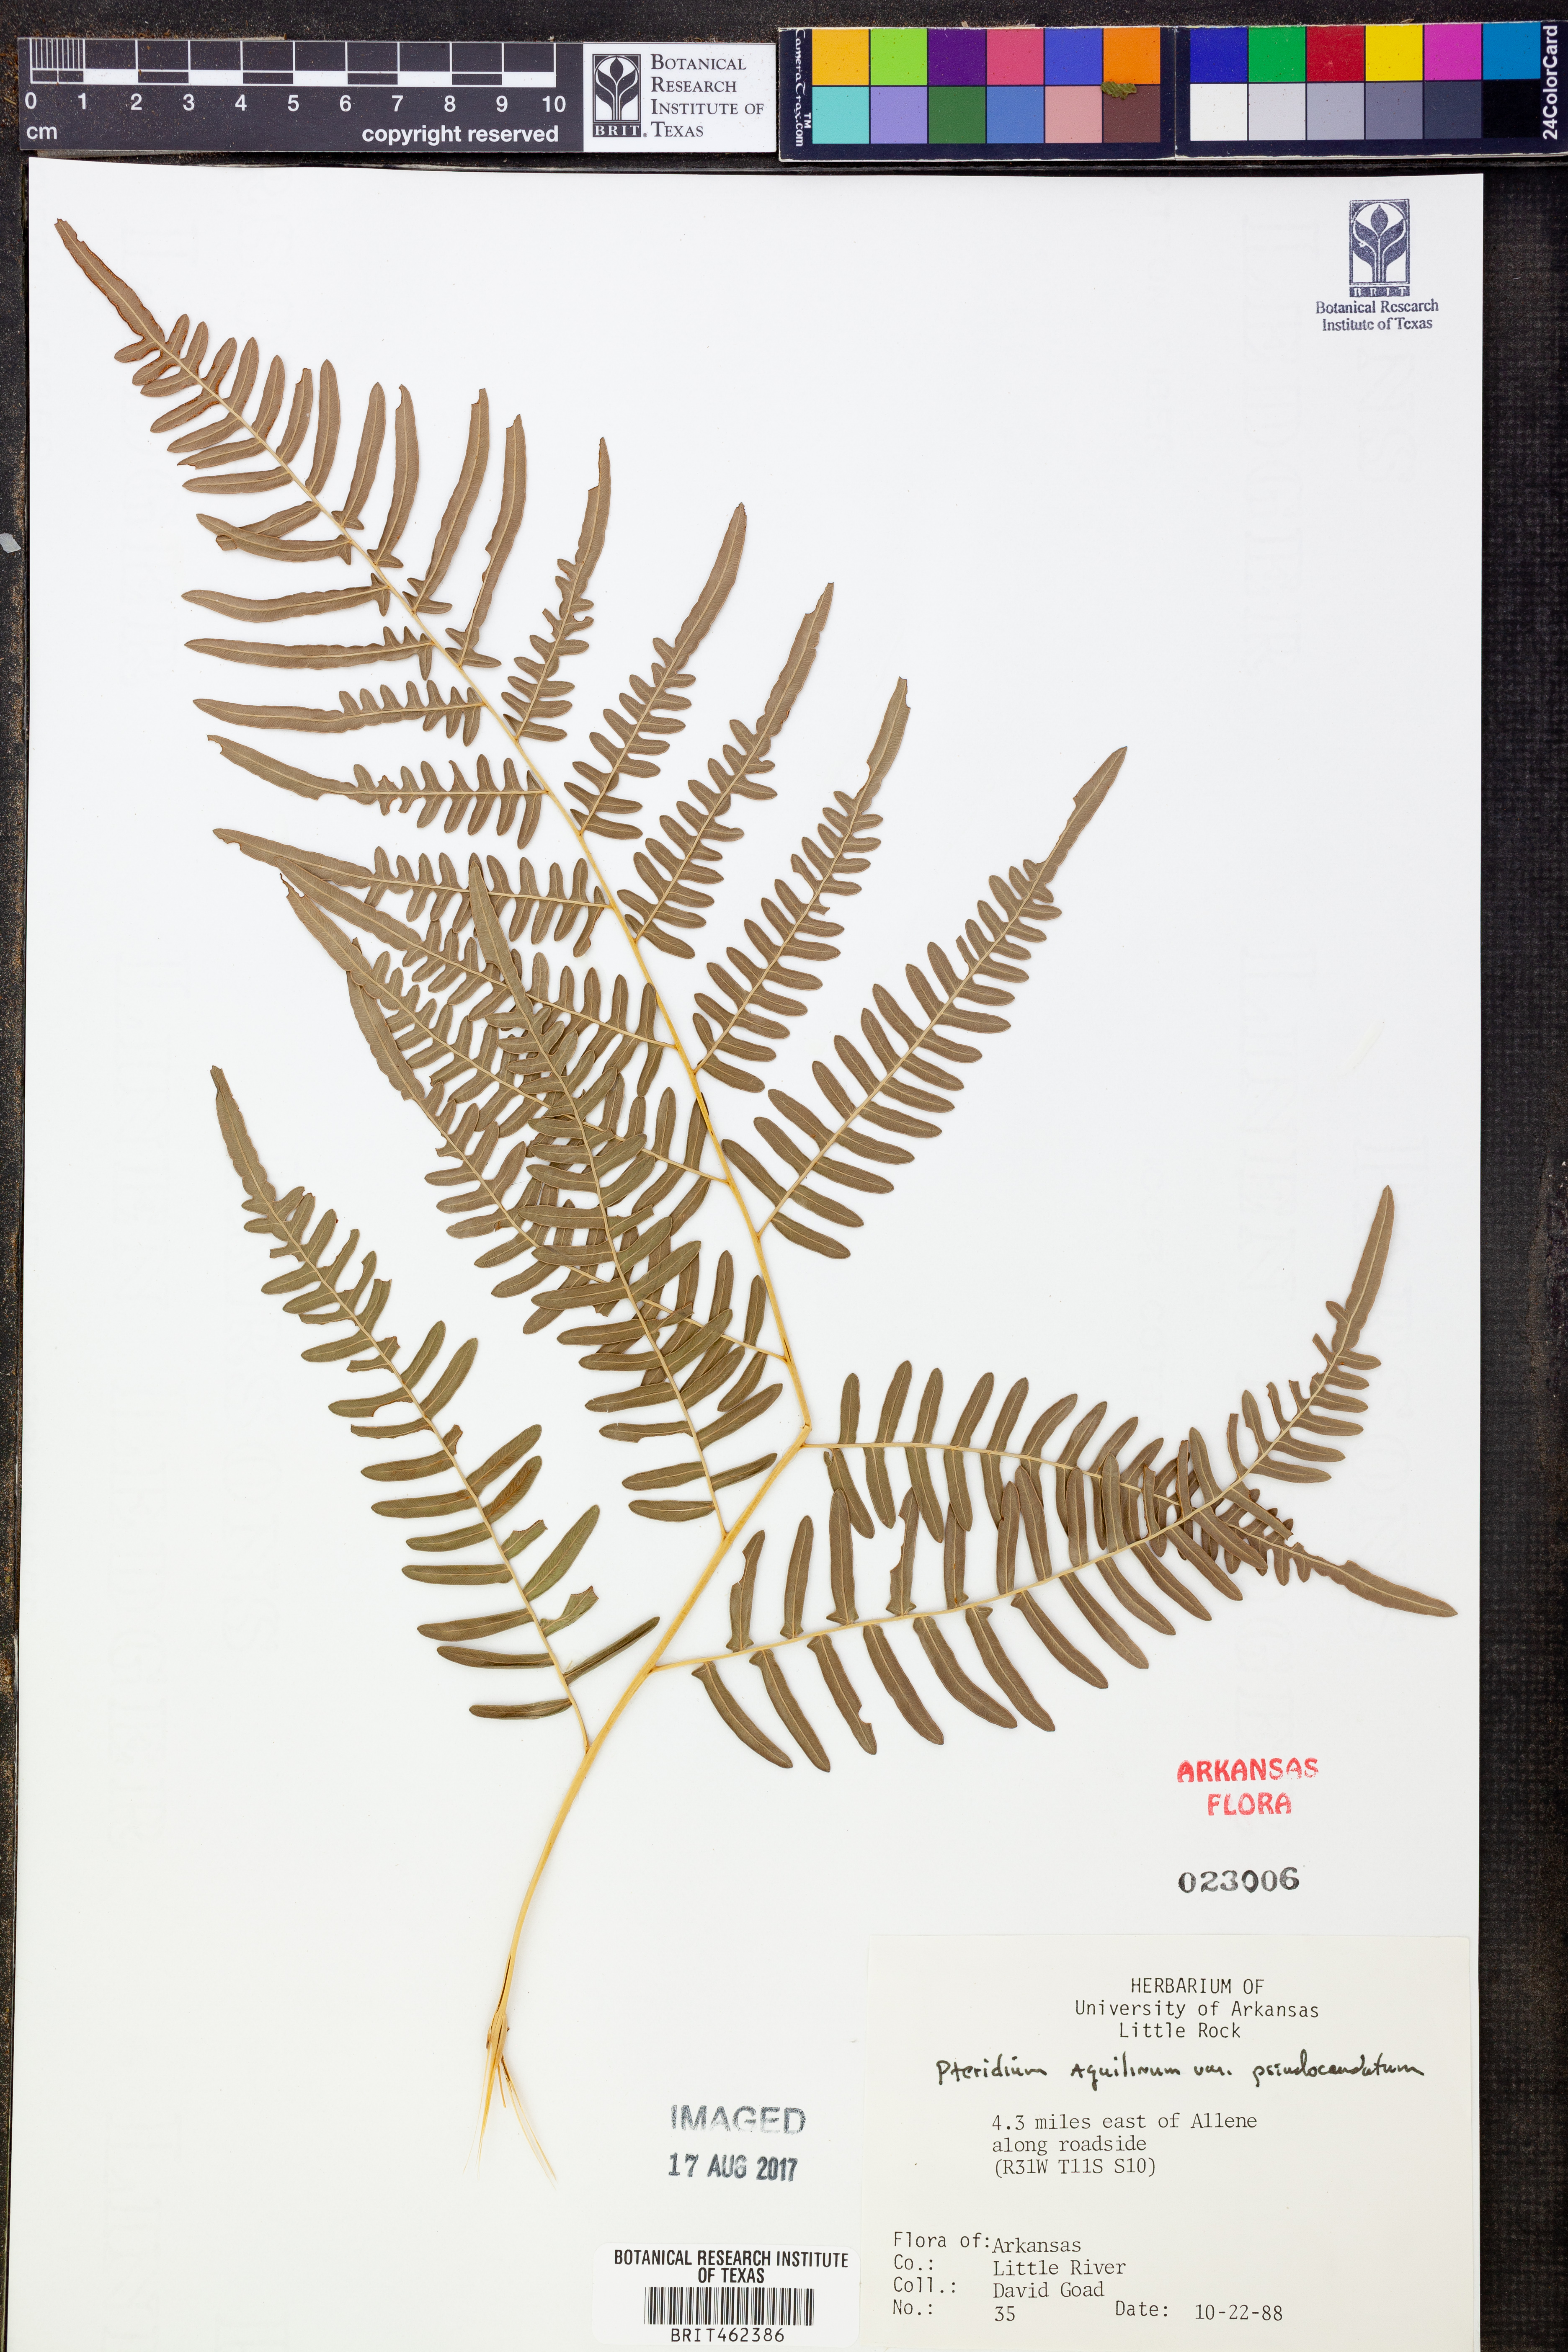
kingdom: Plantae
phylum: Tracheophyta
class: Polypodiopsida
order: Polypodiales
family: Dennstaedtiaceae
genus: Pteridium
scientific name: Pteridium aquilinum
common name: Bracken
